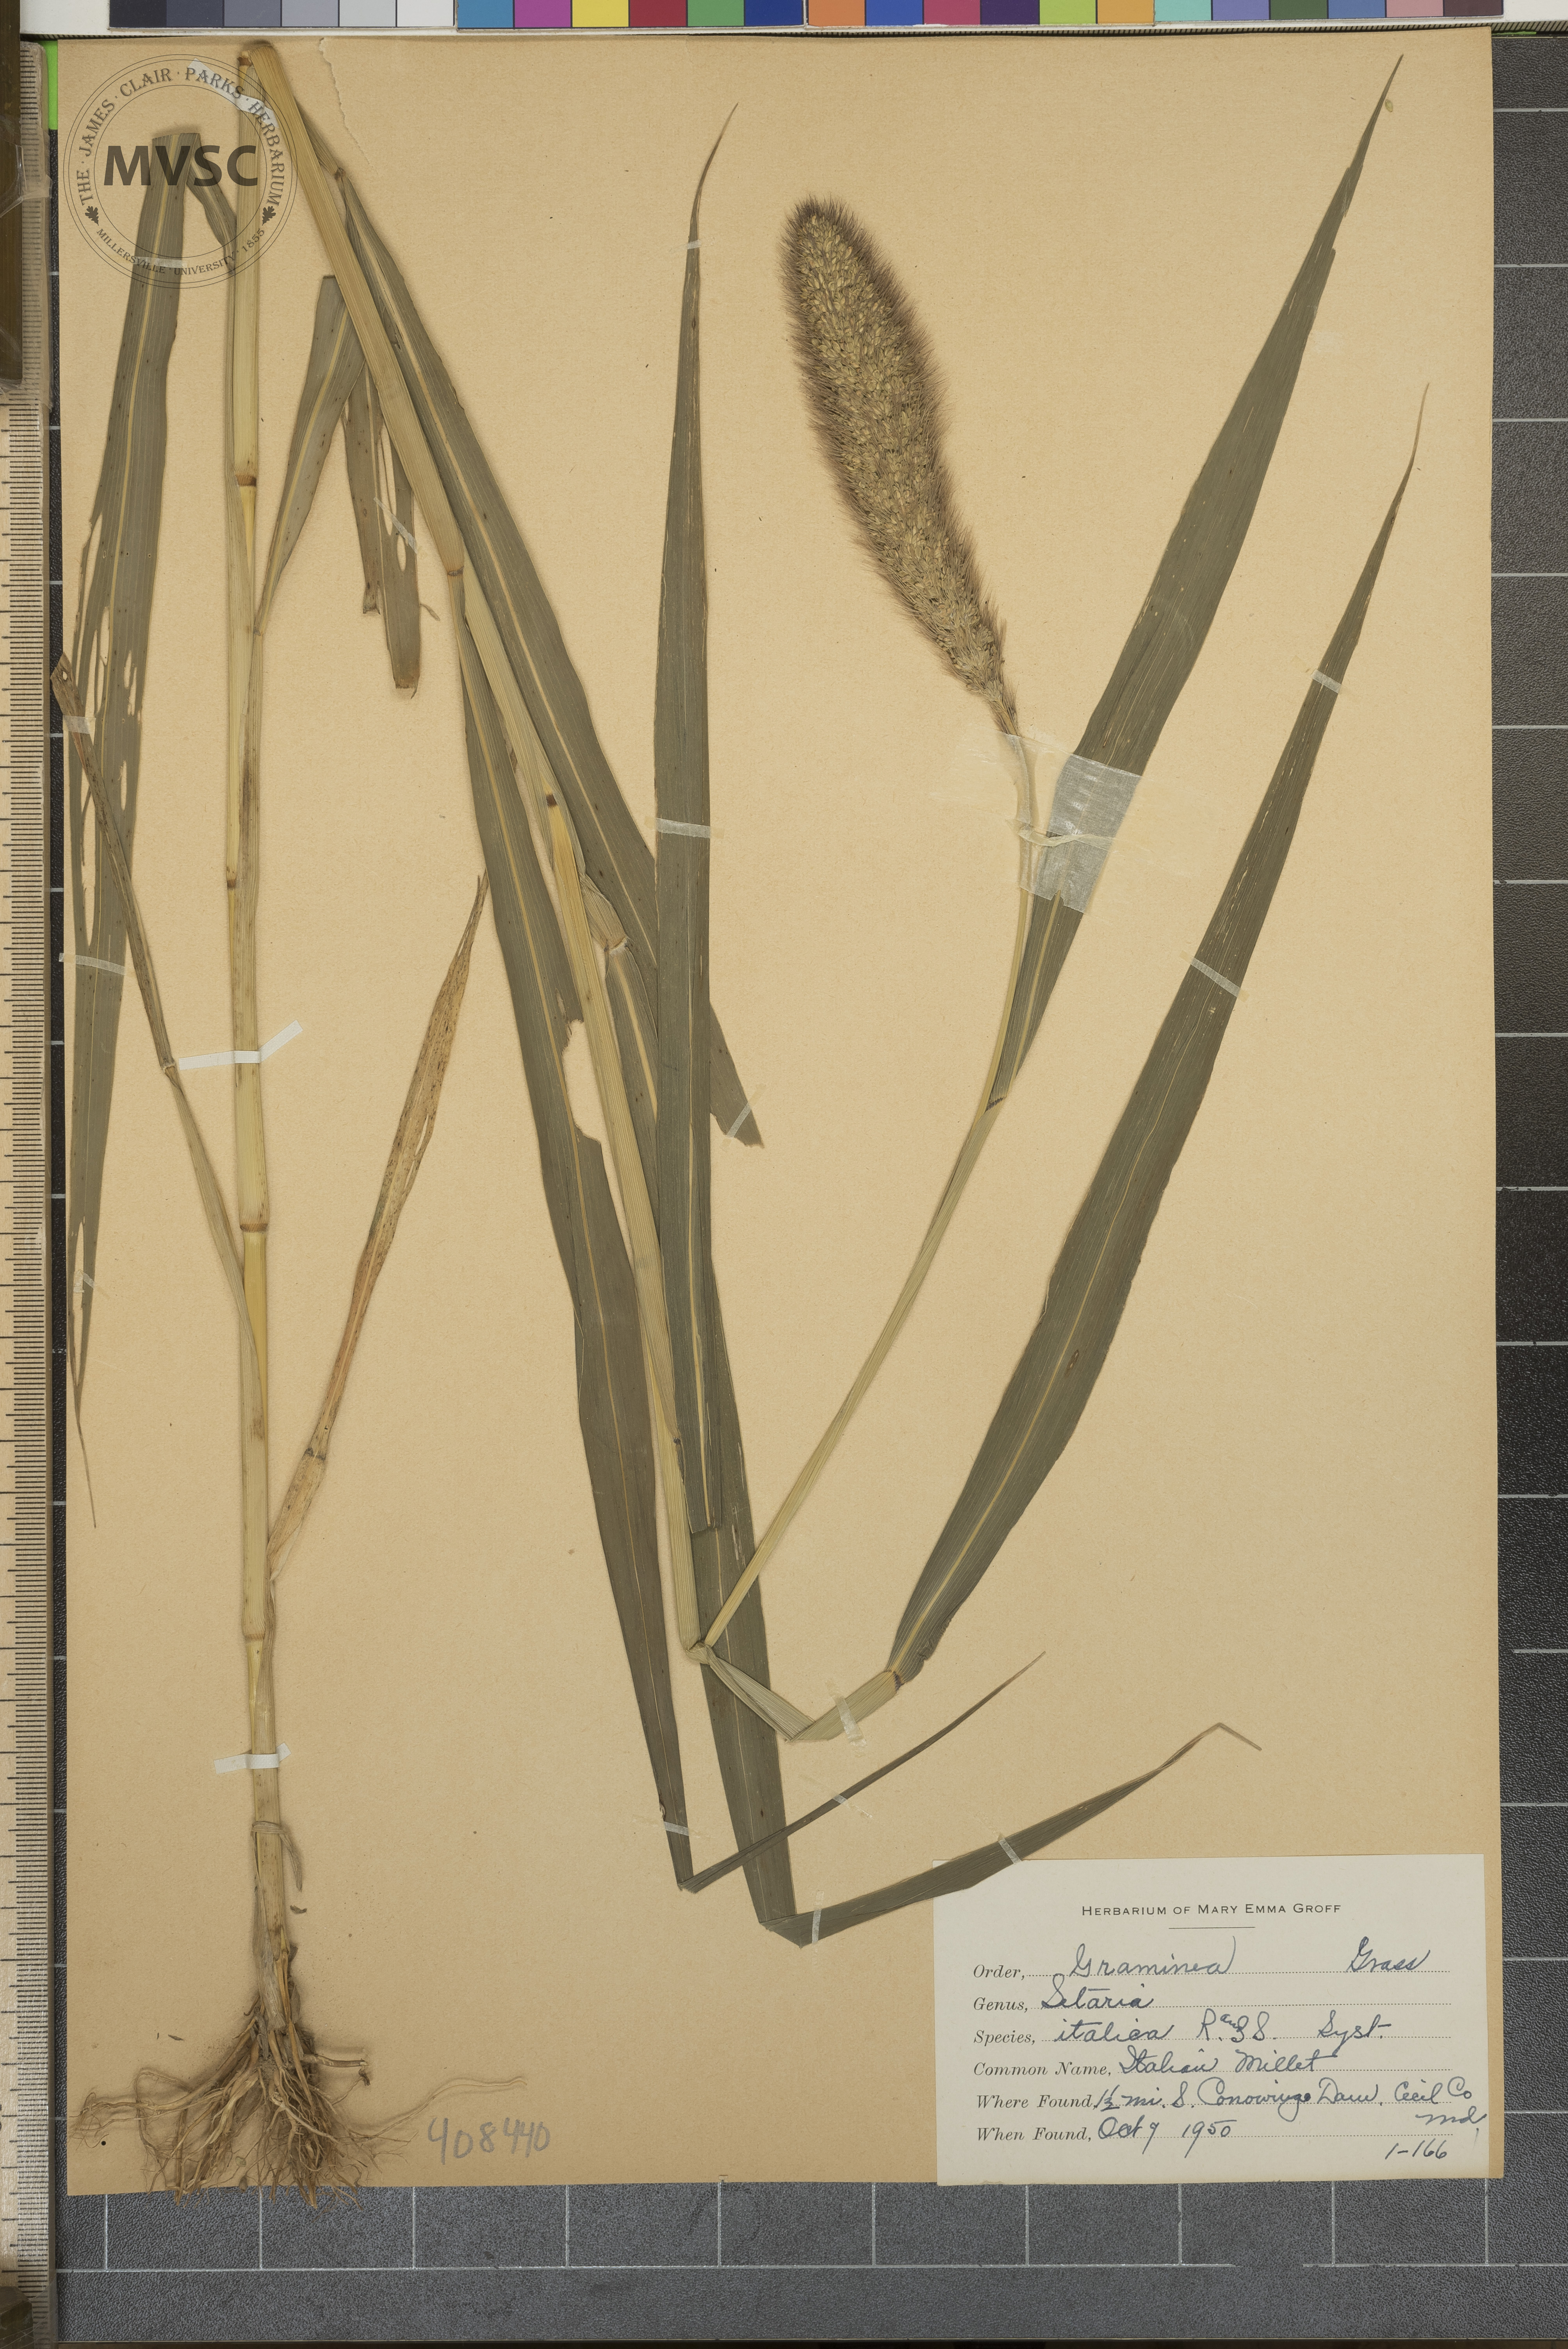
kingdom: Plantae
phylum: Tracheophyta
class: Liliopsida
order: Poales
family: Poaceae
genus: Setaria
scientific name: Setaria italica
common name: Italian Millet
